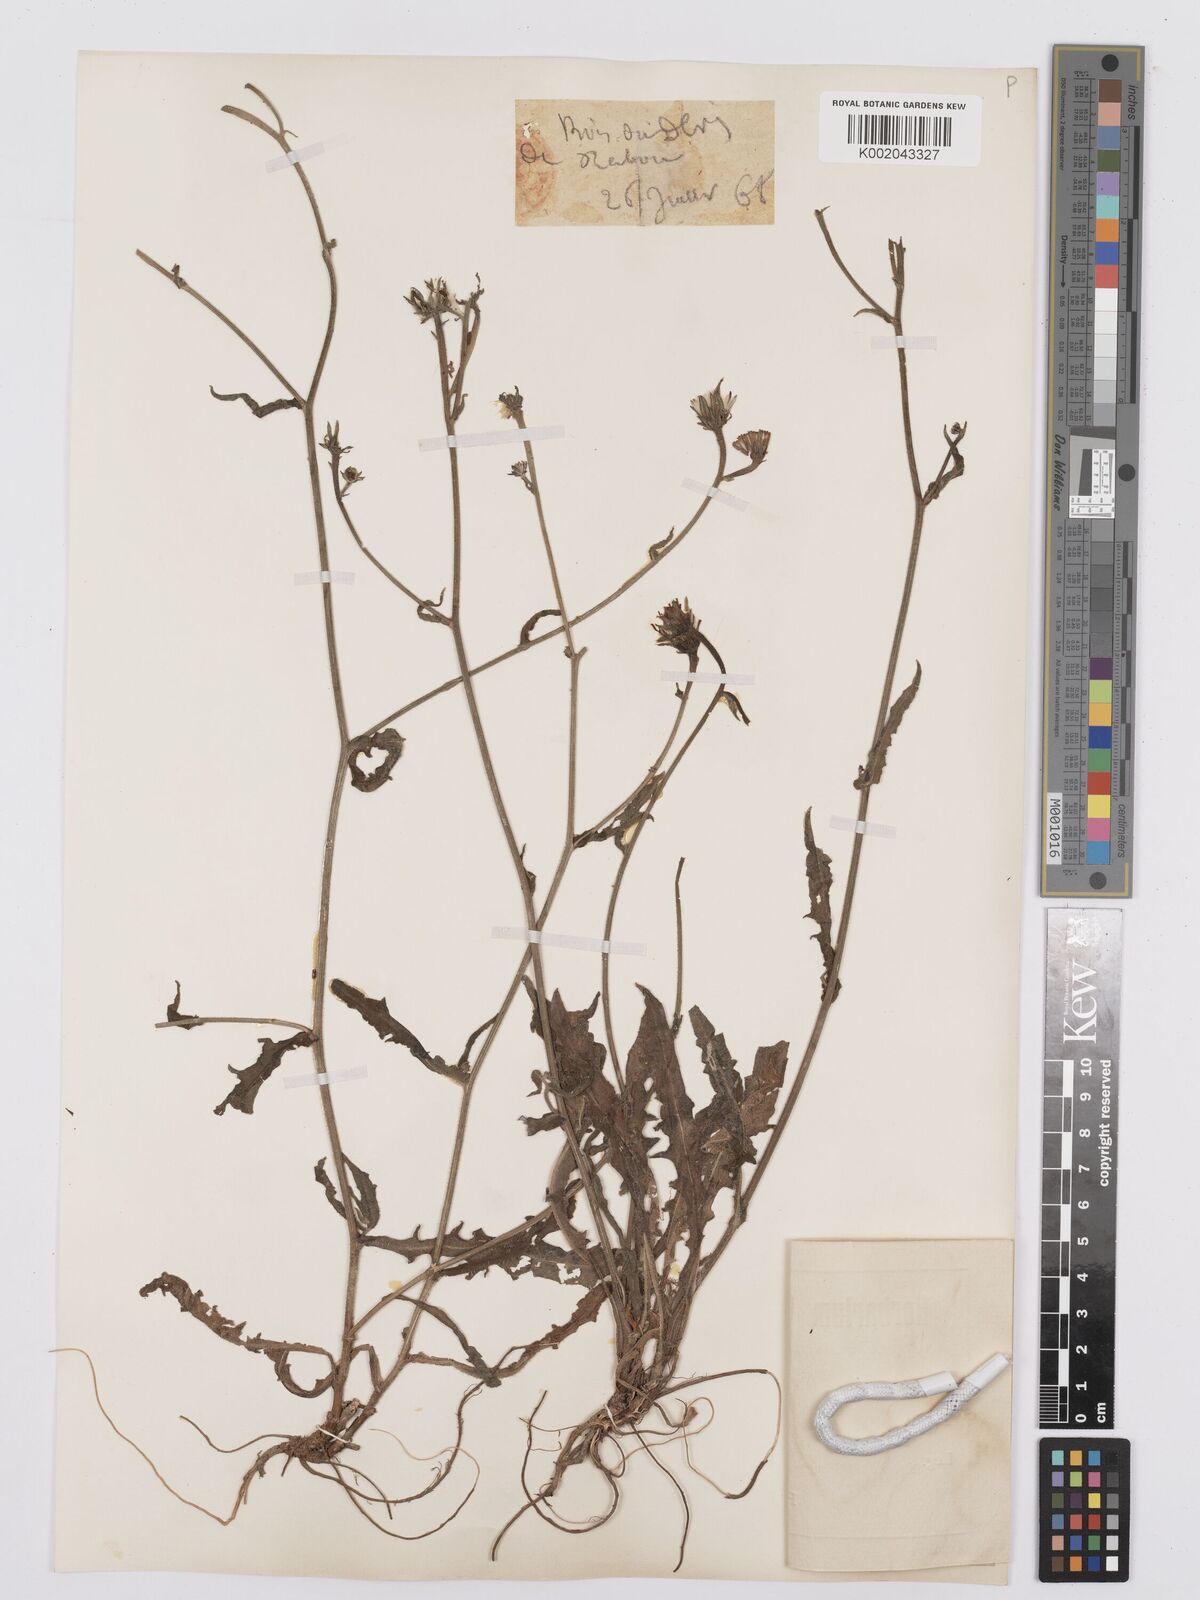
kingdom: Plantae
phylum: Tracheophyta
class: Magnoliopsida
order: Asterales
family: Asteraceae
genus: Picris
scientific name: Picris hieracioides
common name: Hawkweed oxtongue
